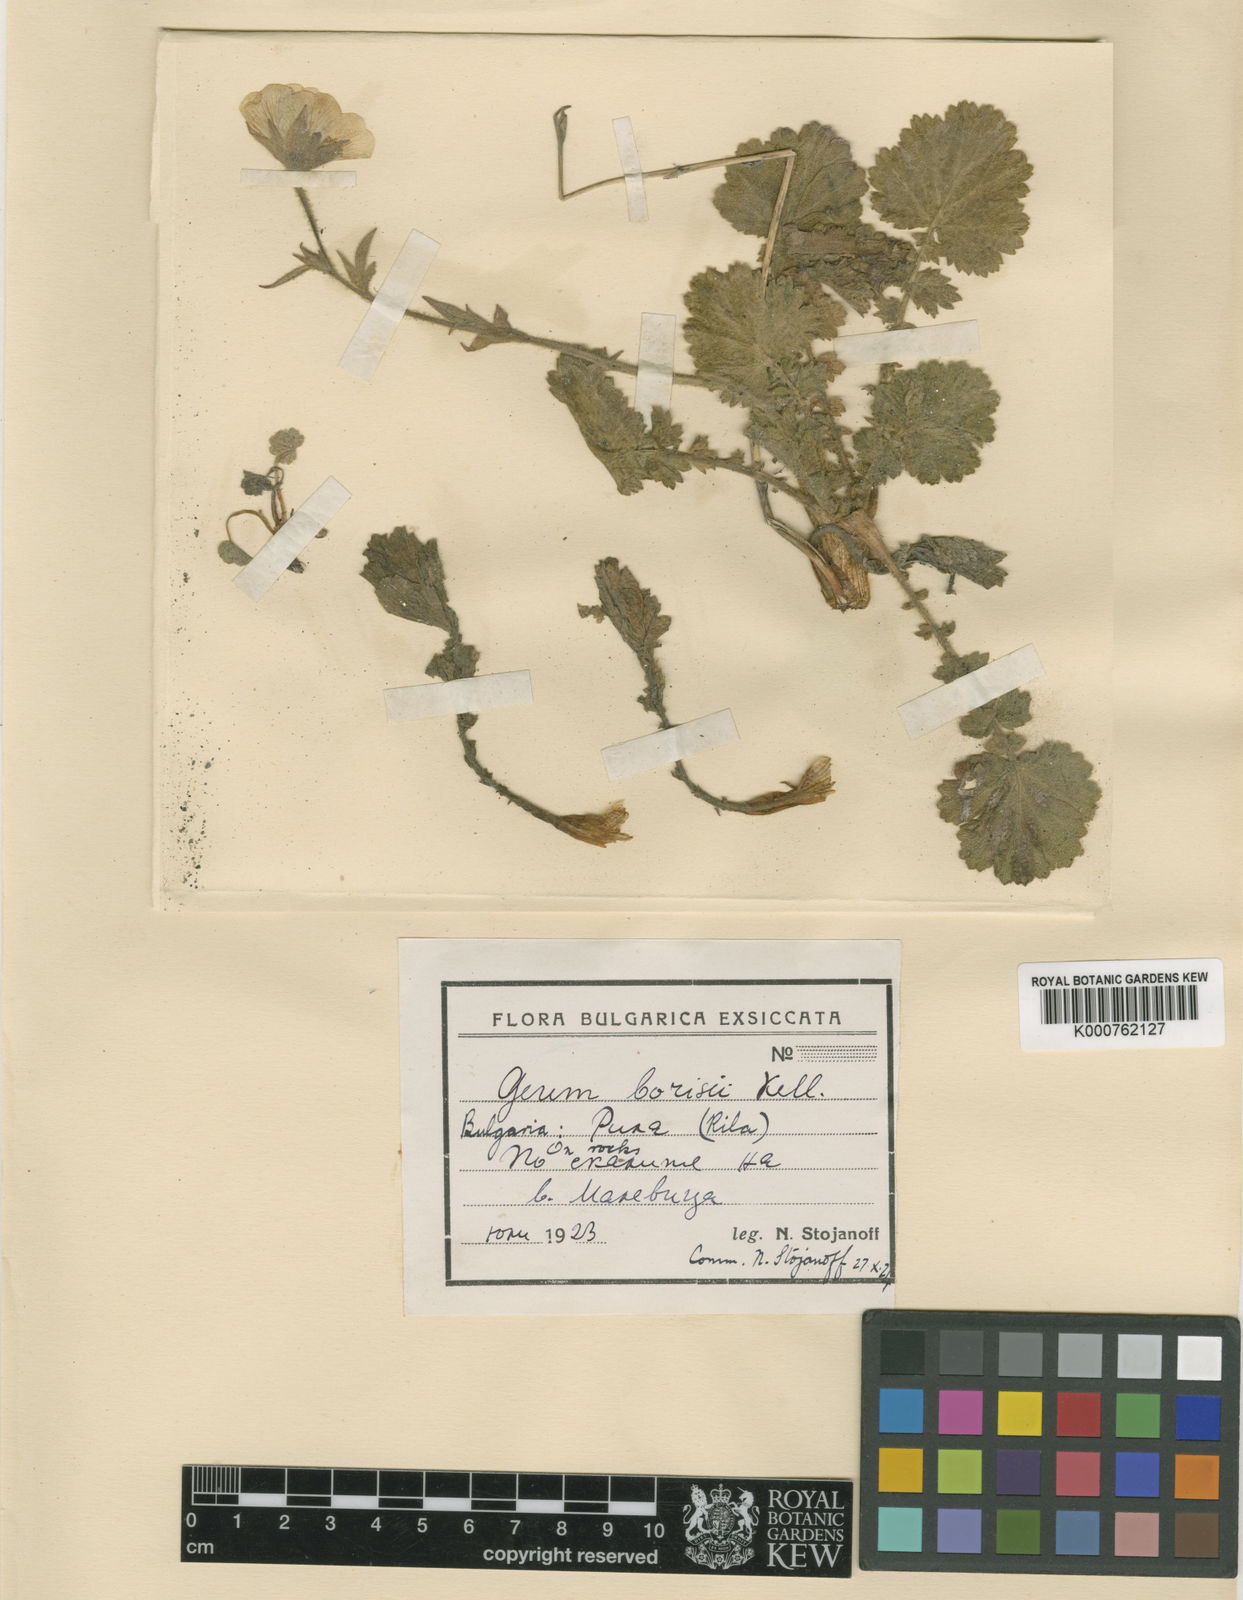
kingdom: Plantae
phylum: Tracheophyta
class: Magnoliopsida
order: Rosales
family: Rosaceae
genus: Geum
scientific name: Geum
